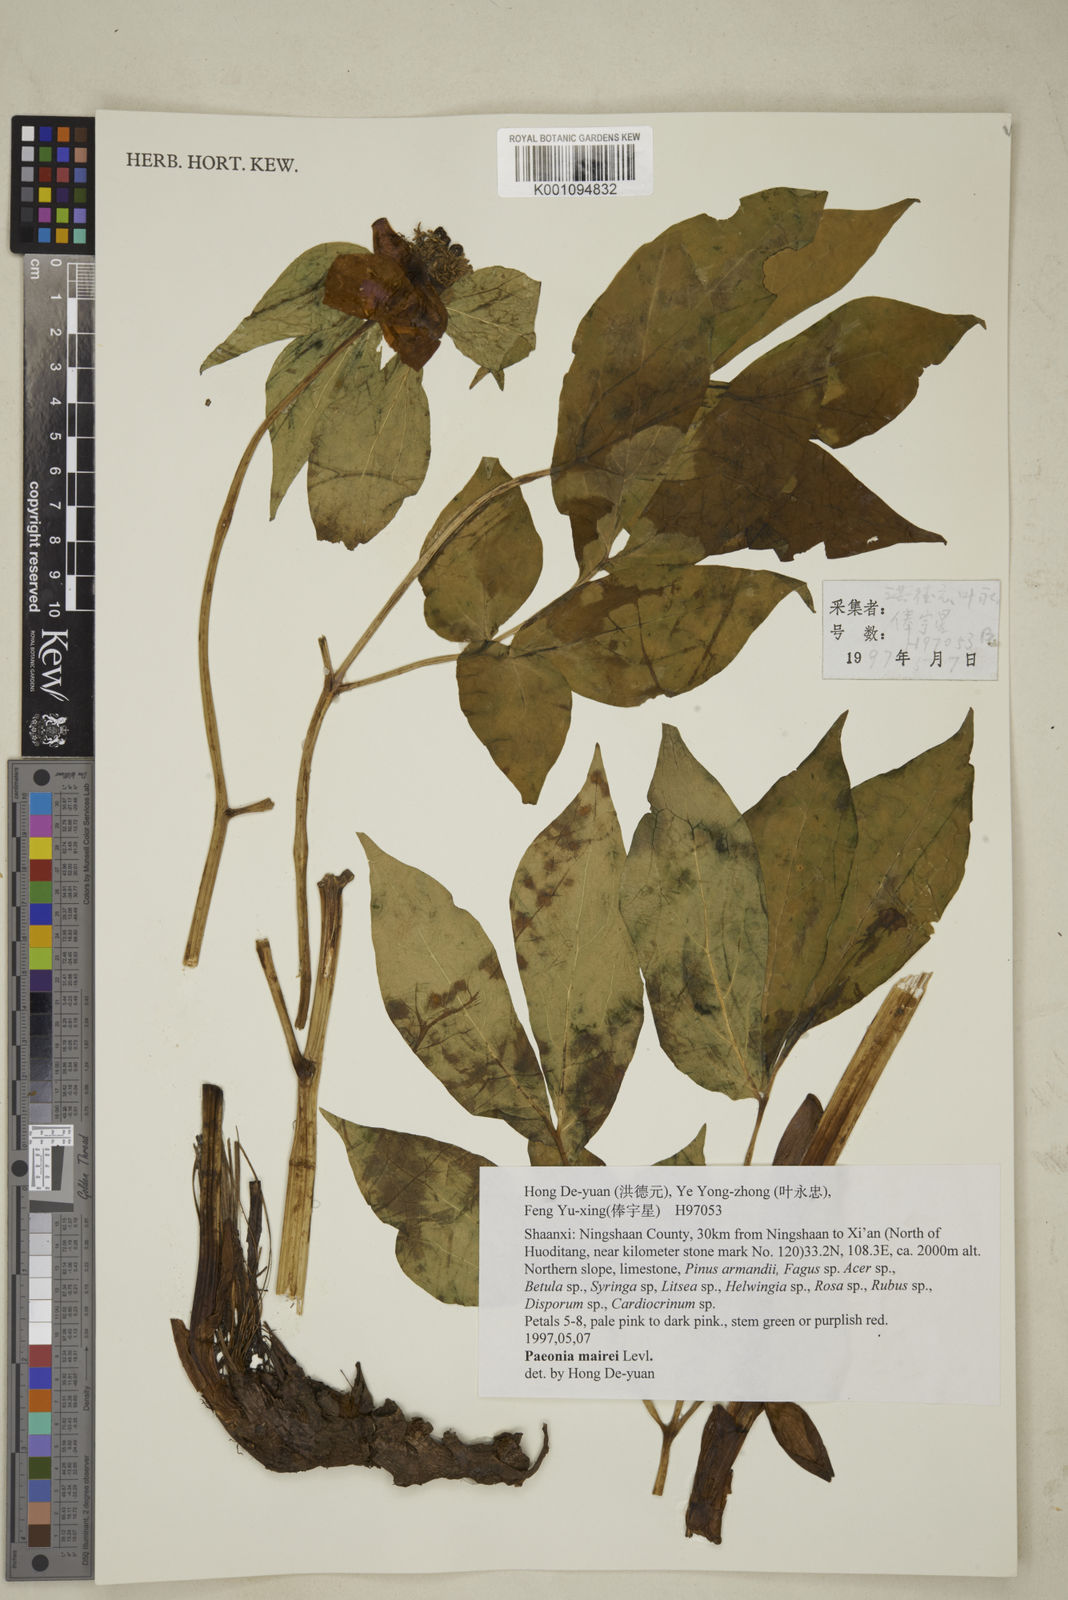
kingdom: Plantae
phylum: Tracheophyta
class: Magnoliopsida
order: Saxifragales
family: Paeoniaceae
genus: Paeonia
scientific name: Paeonia
